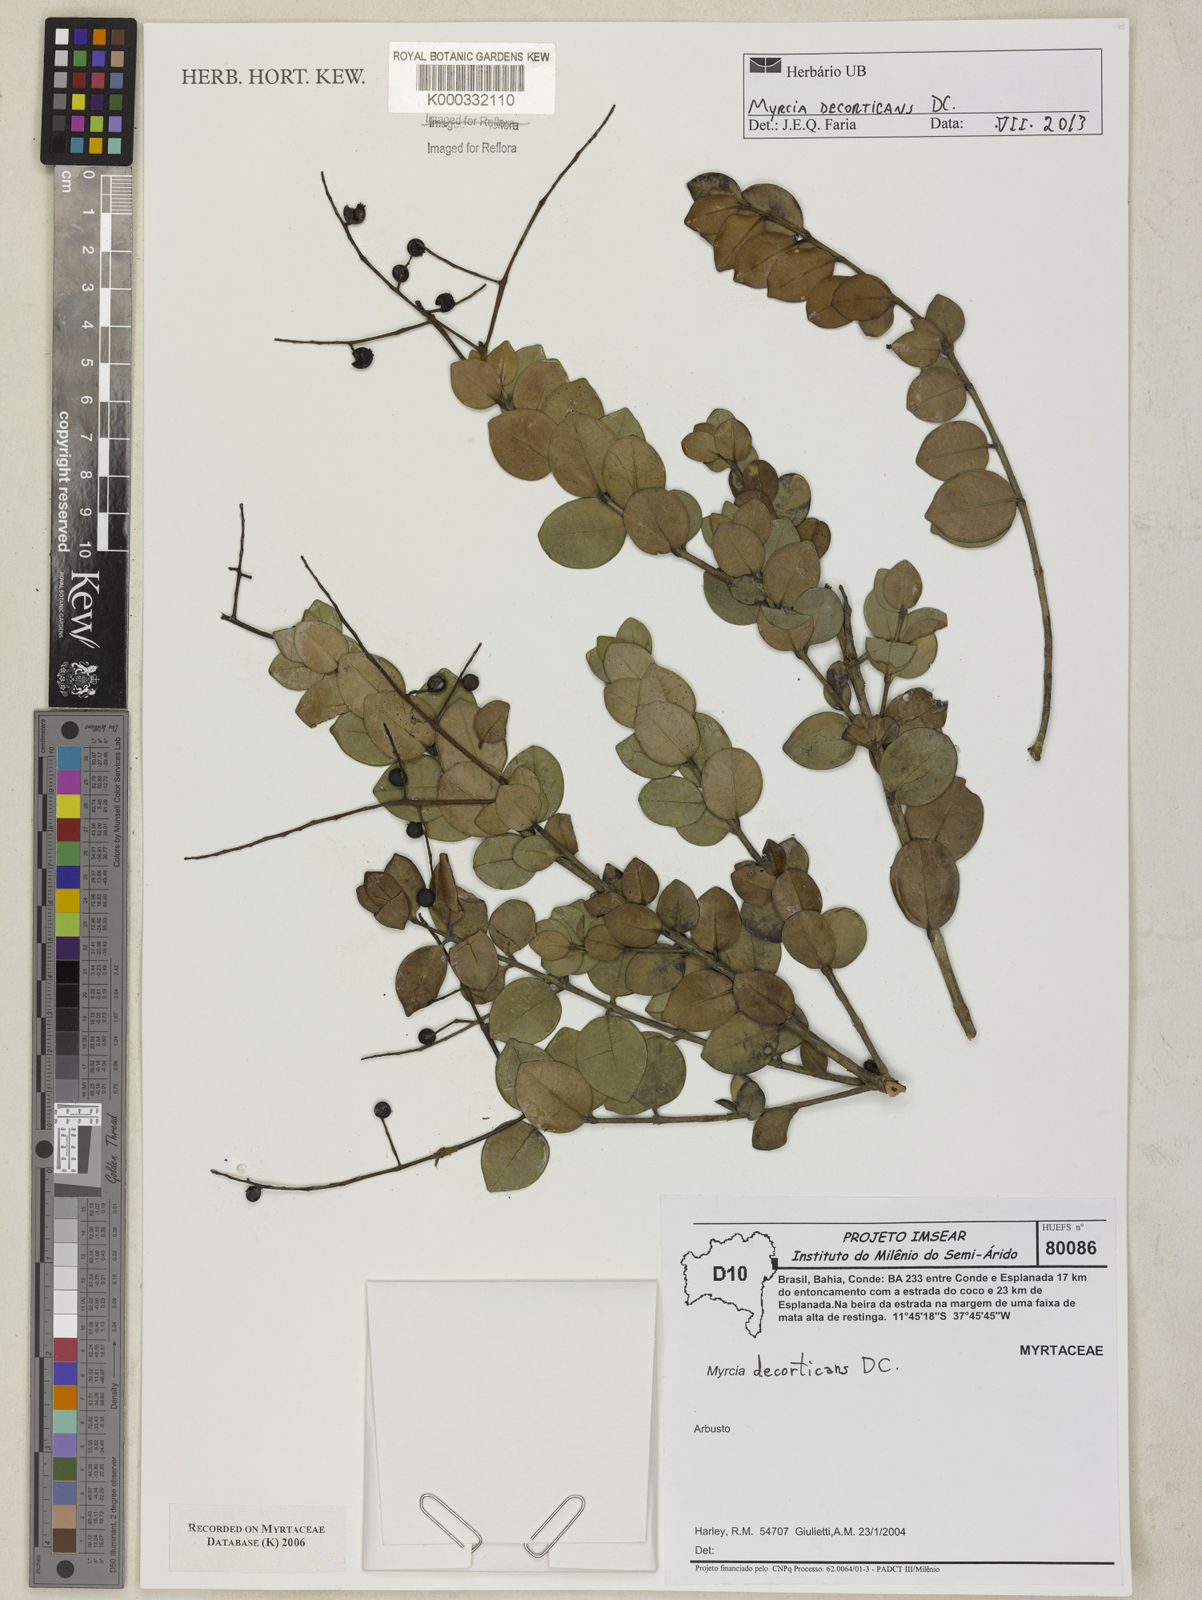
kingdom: Plantae
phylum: Tracheophyta
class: Magnoliopsida
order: Myrtales
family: Myrtaceae
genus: Myrcia
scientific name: Myrcia decorticans
